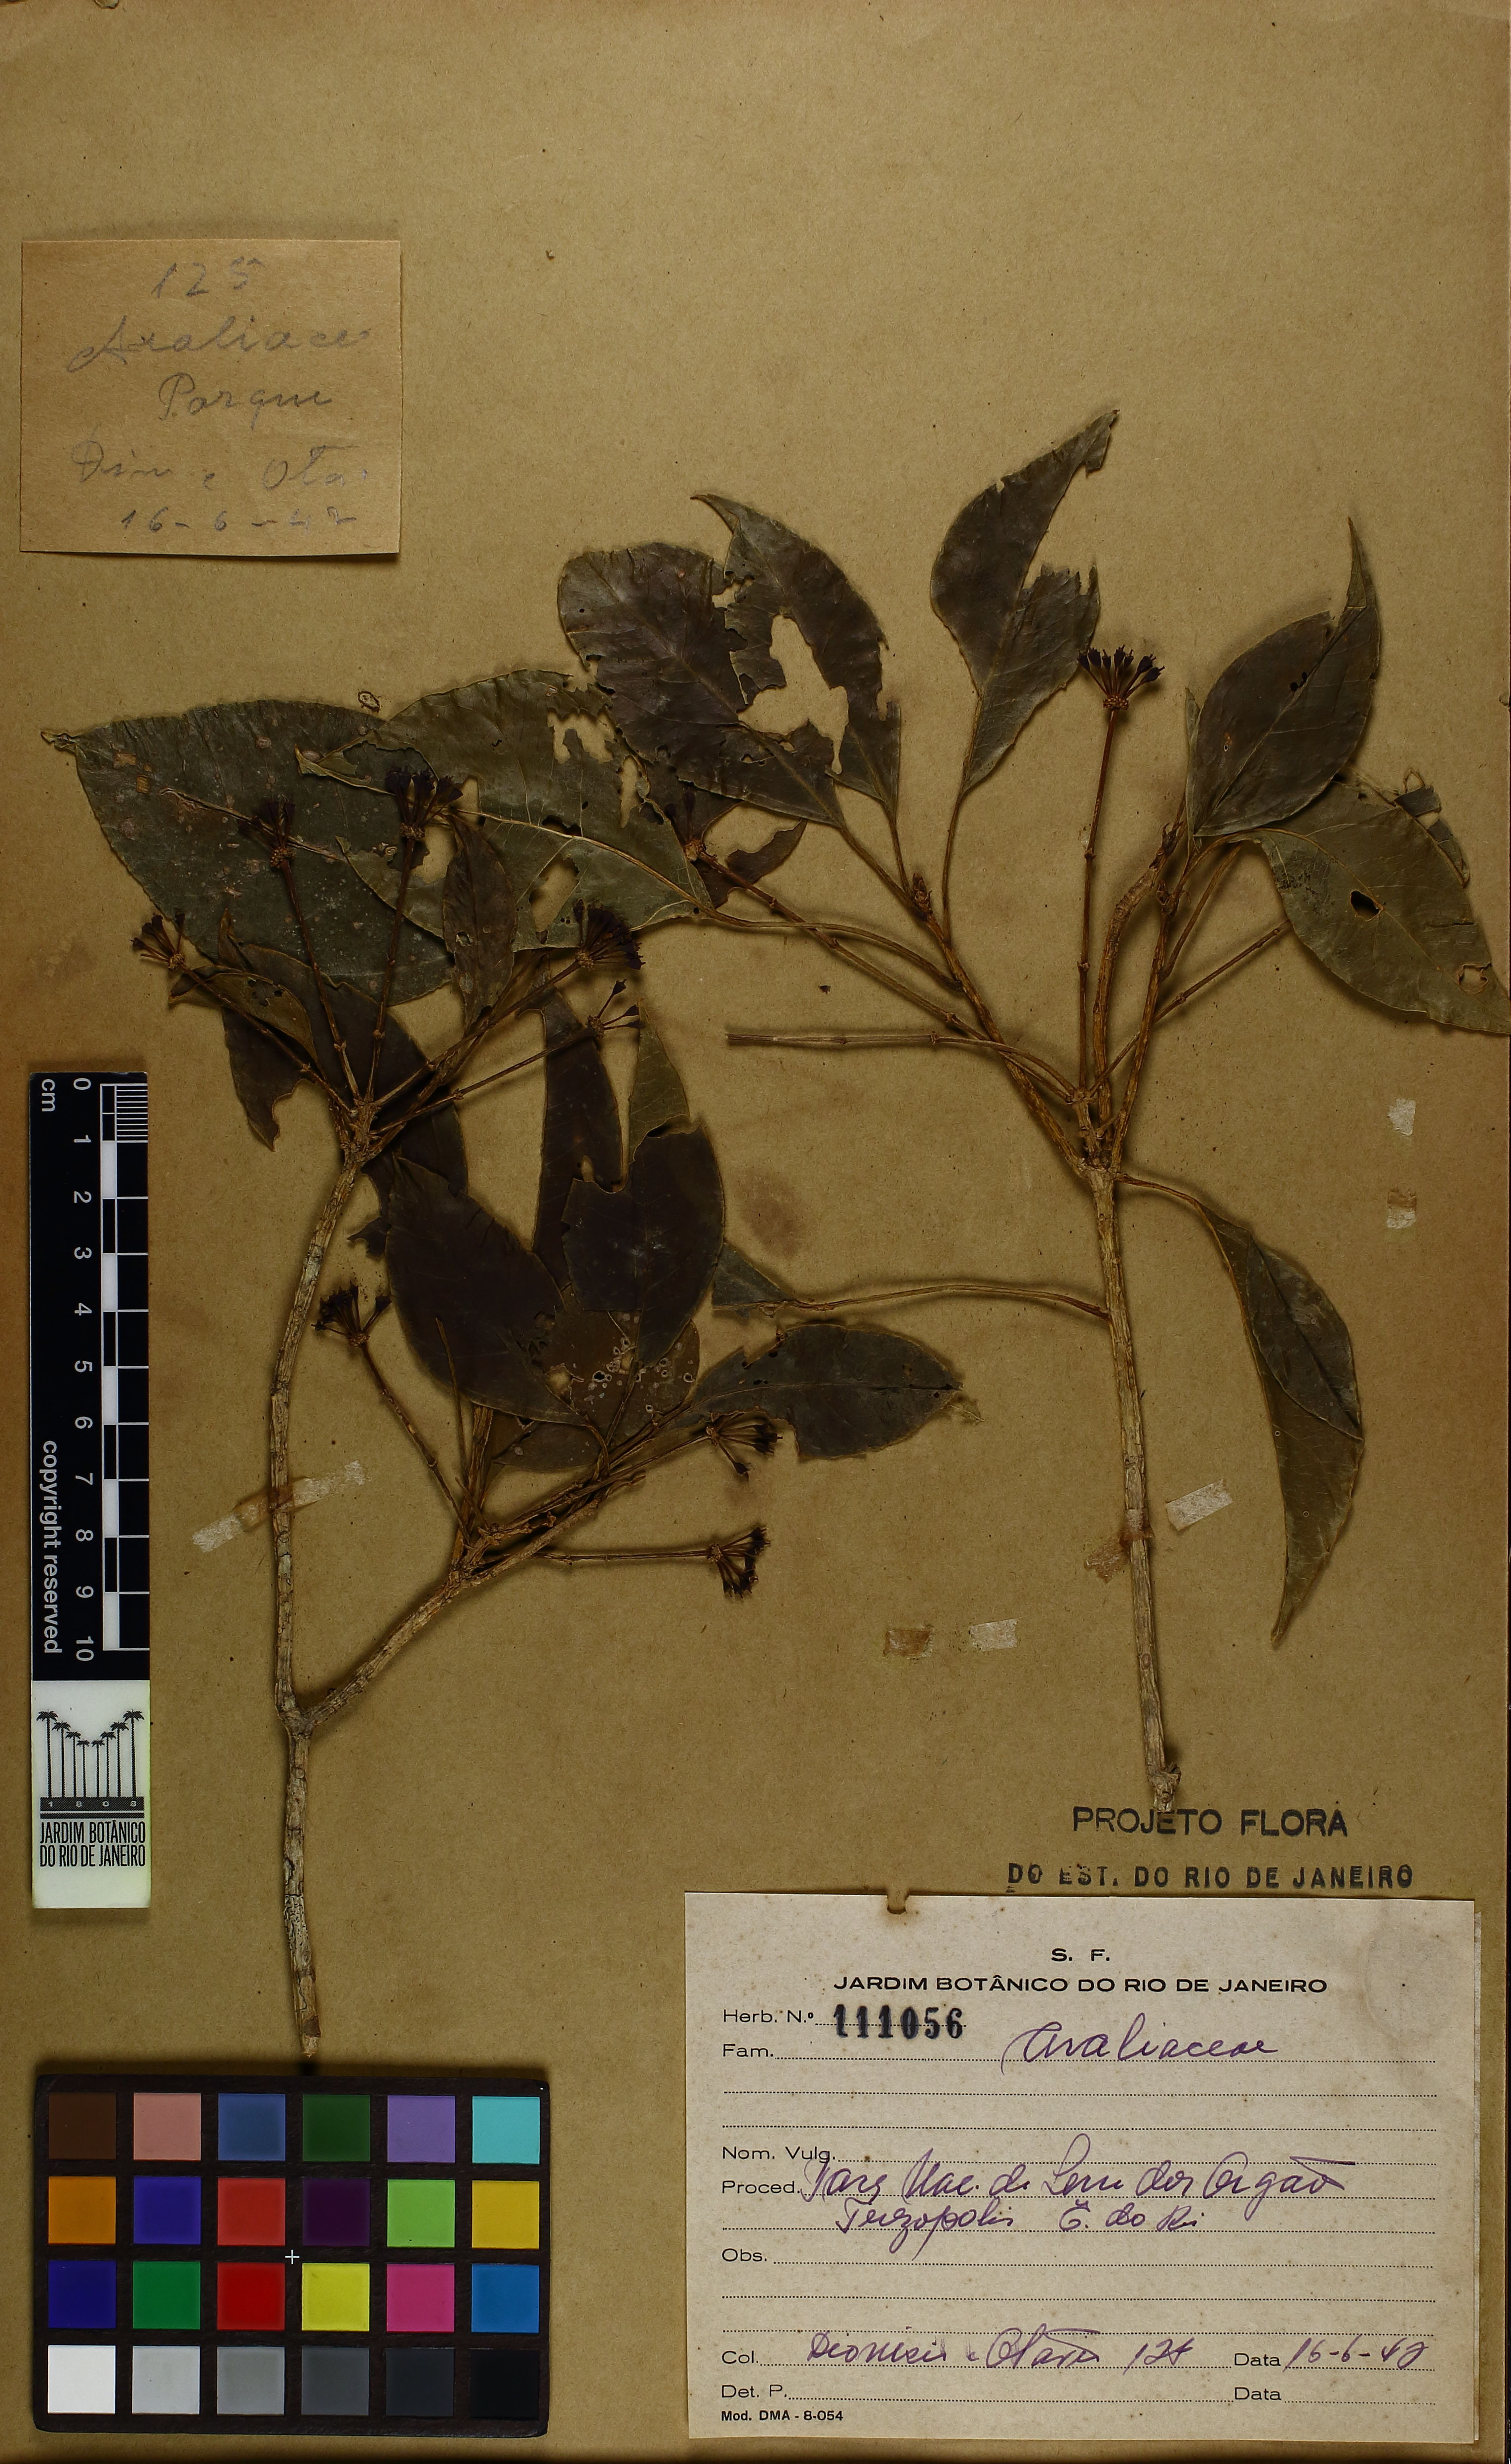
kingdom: Plantae
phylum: Tracheophyta
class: Magnoliopsida
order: Apiales
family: Araliaceae
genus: Dendropanax
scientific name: Dendropanax langsdorffii
